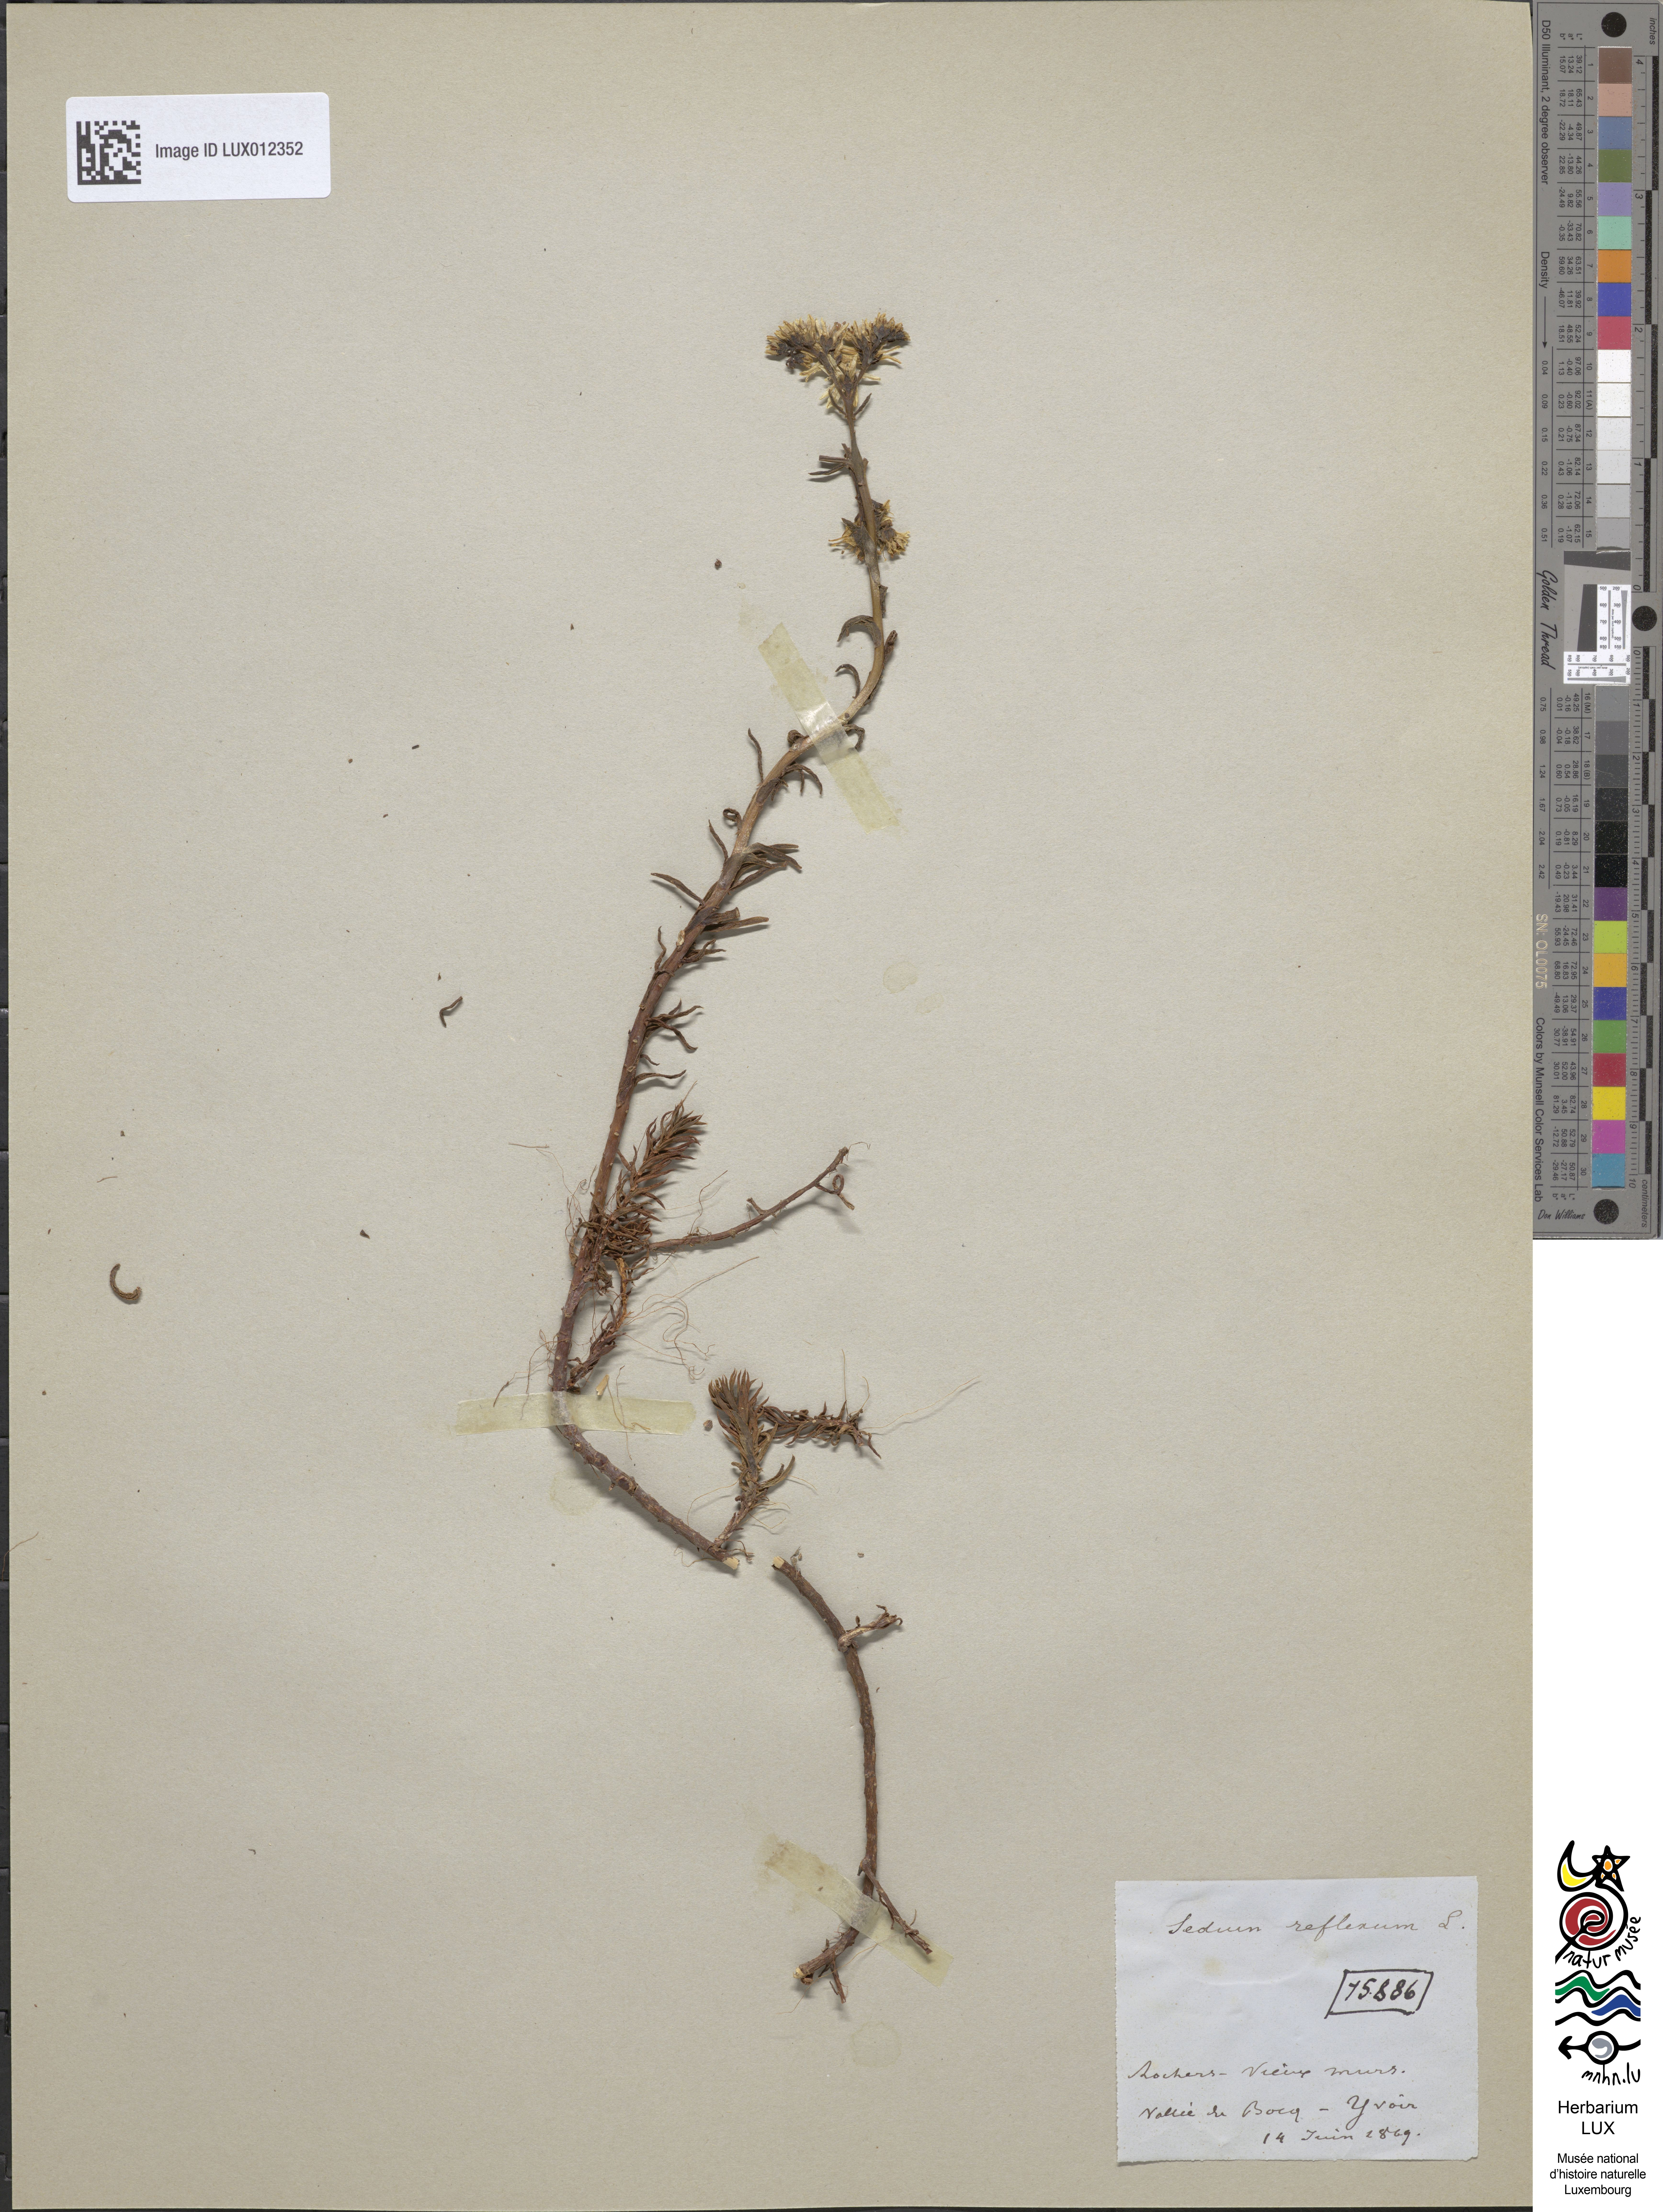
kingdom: Plantae
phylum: Tracheophyta
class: Magnoliopsida
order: Saxifragales
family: Crassulaceae
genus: Petrosedum
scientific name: Petrosedum rupestre
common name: Jenny's stonecrop
